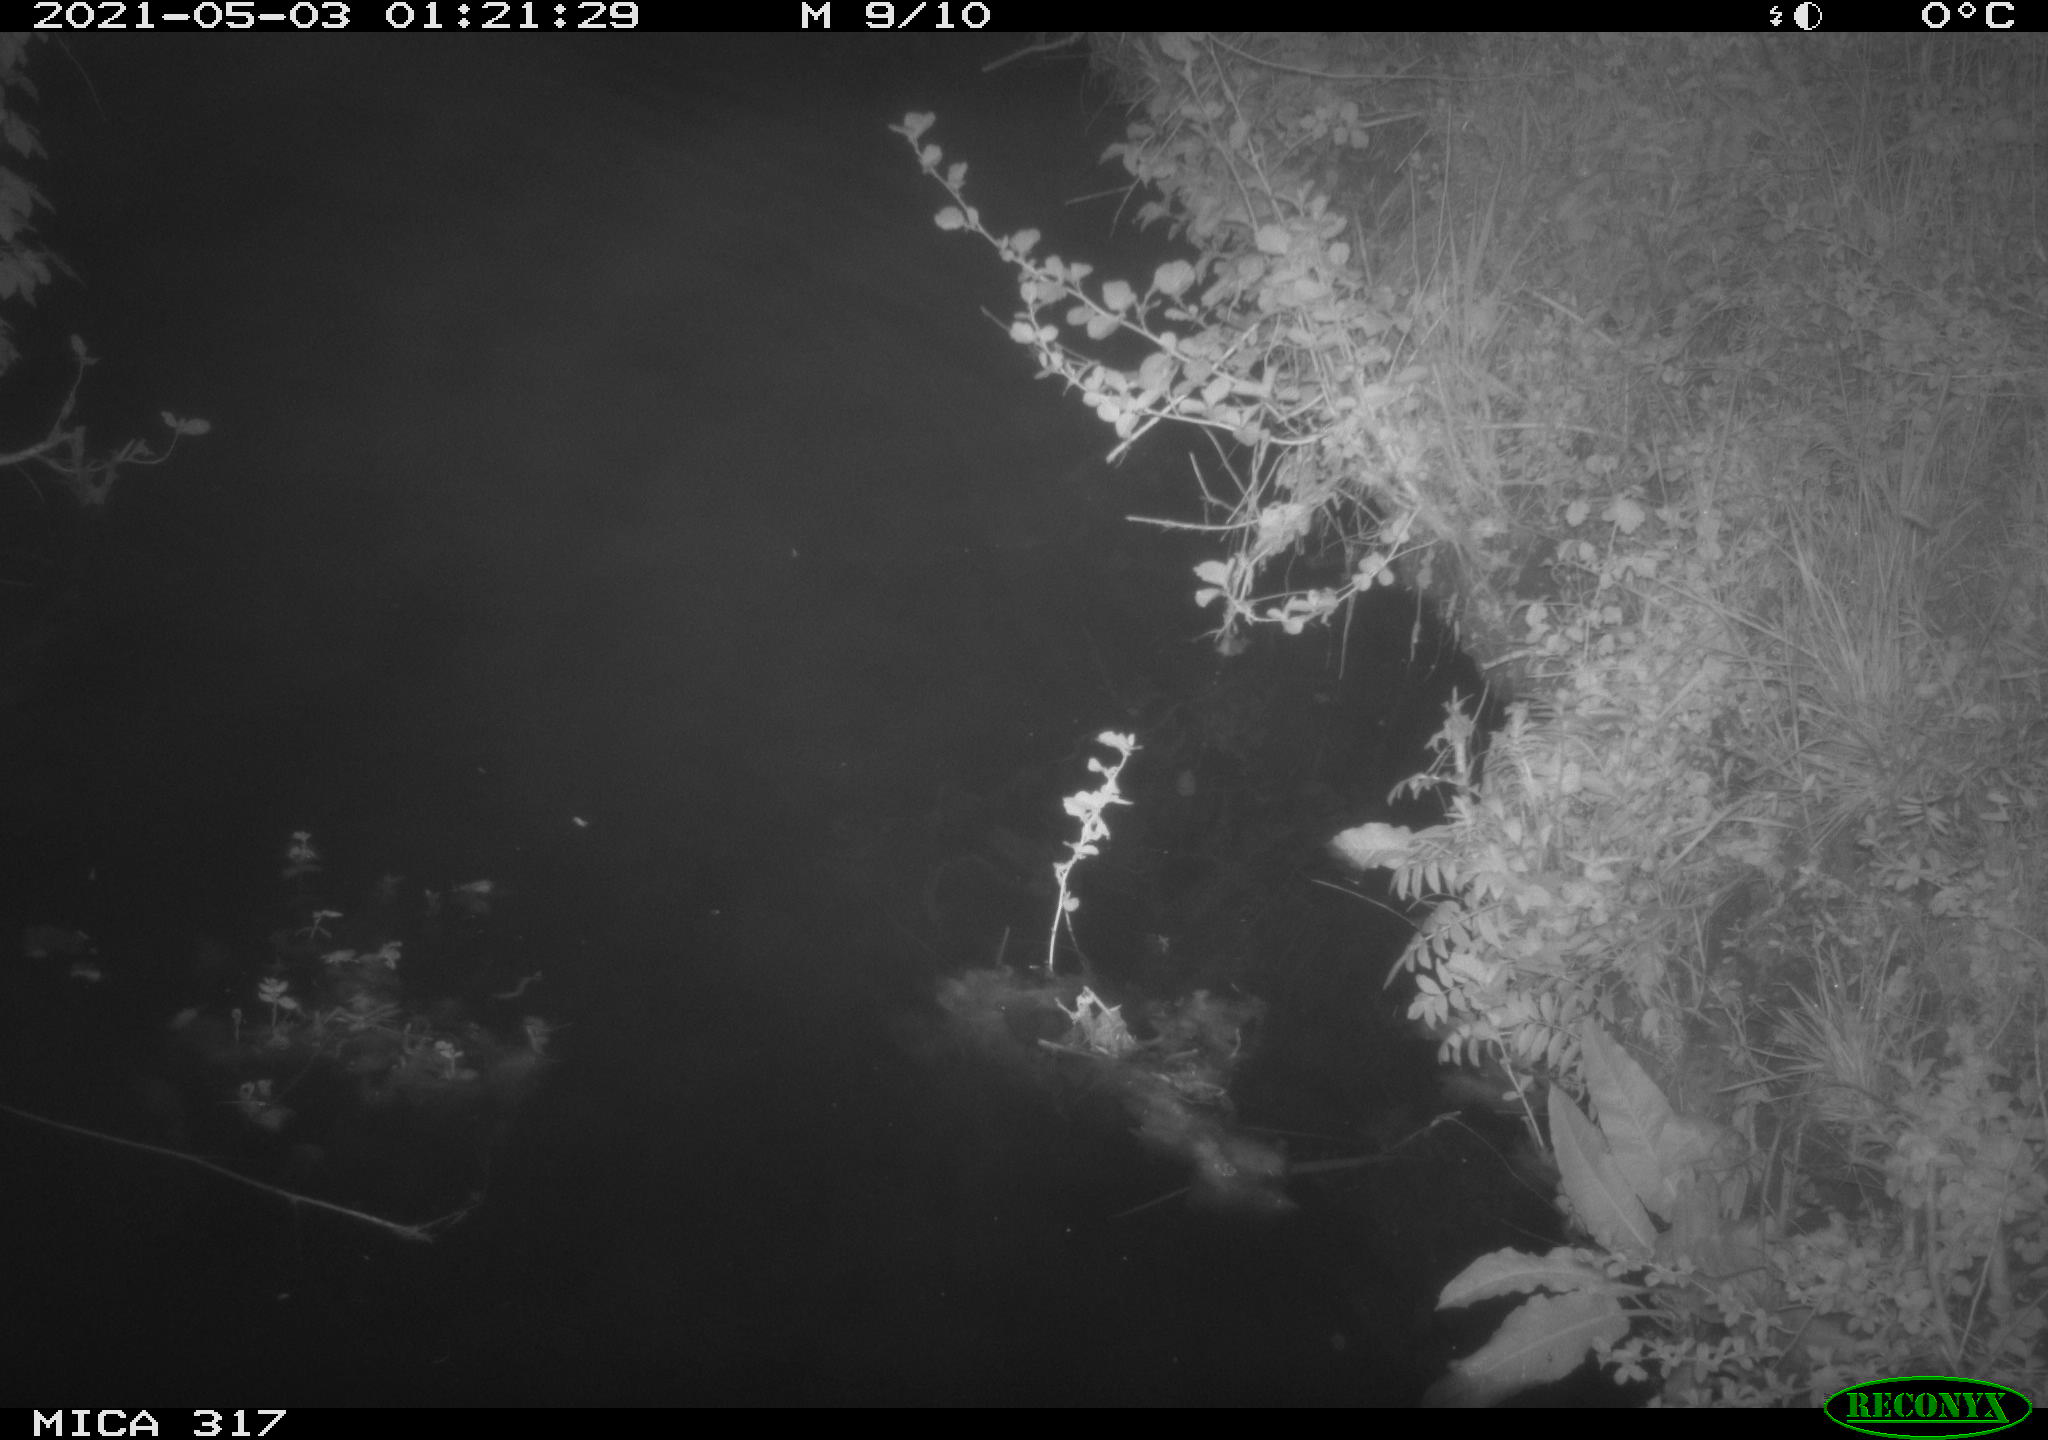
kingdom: Animalia
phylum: Chordata
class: Aves
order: Anseriformes
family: Anatidae
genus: Anas
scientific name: Anas
